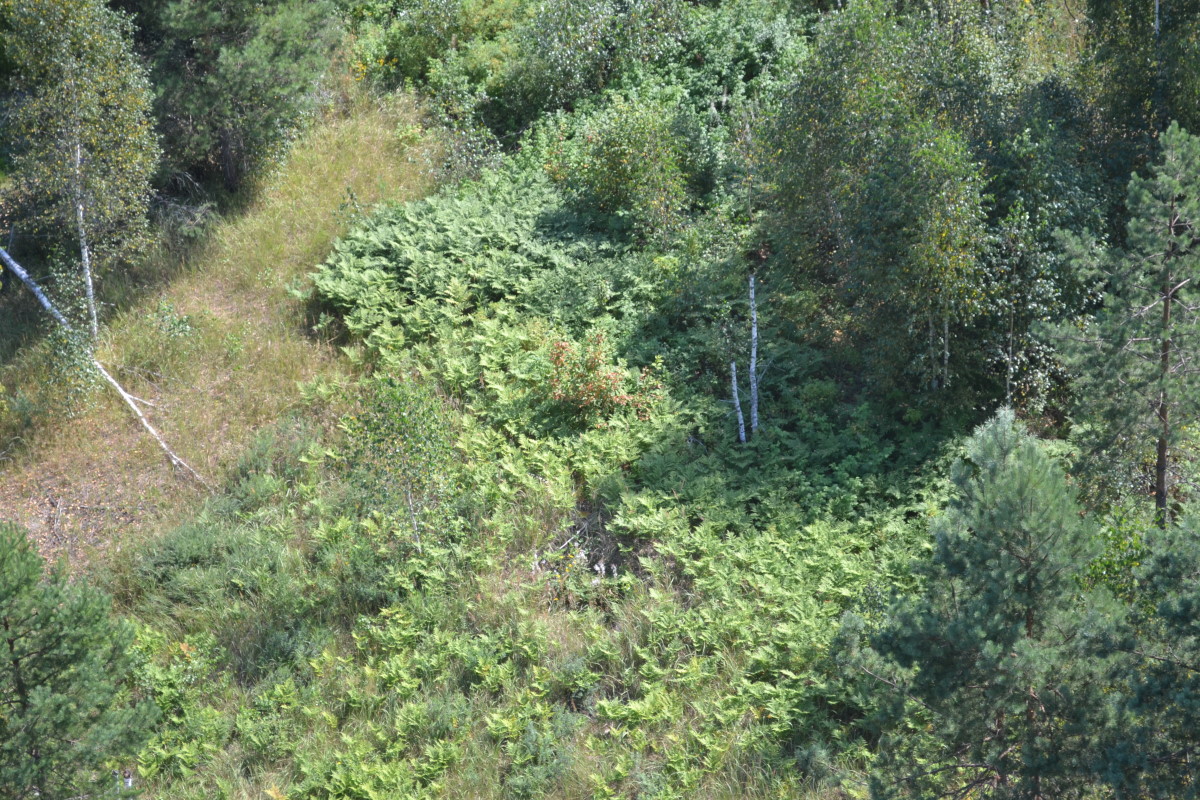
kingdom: Plantae
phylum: Tracheophyta
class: Polypodiopsida
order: Polypodiales
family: Dennstaedtiaceae
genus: Pteridium
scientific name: Pteridium aquilinum
